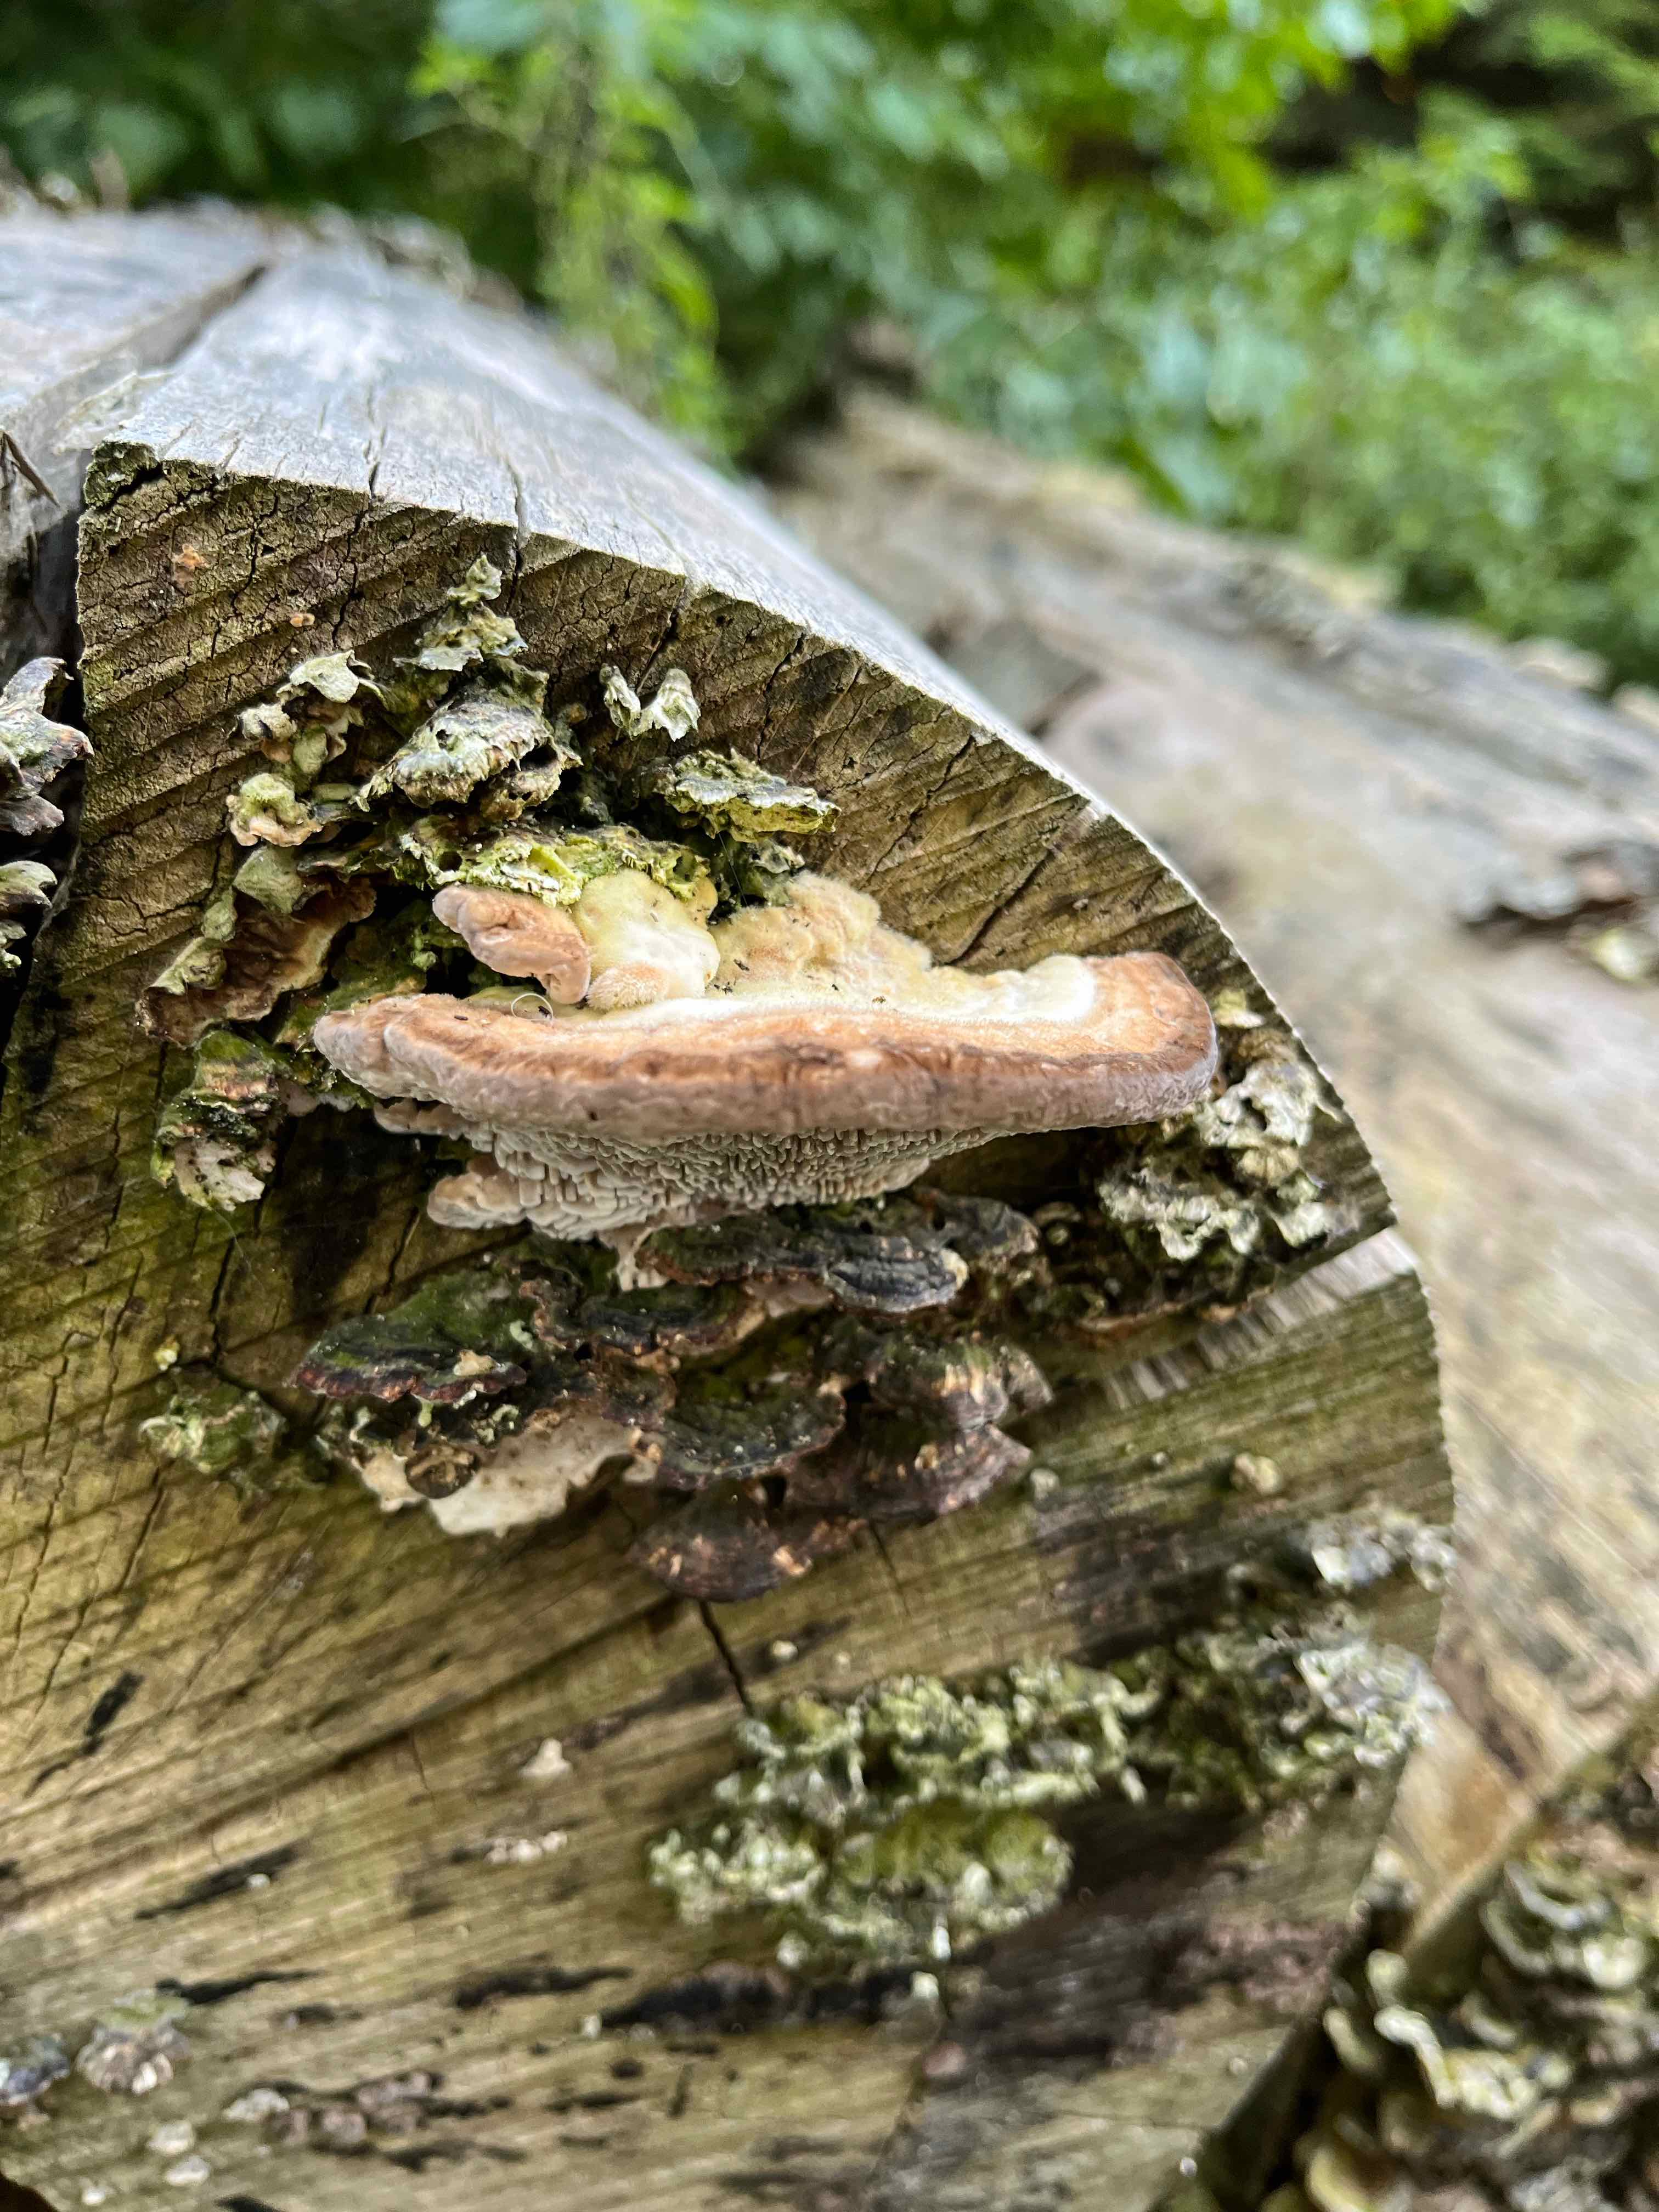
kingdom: Fungi
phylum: Basidiomycota
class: Agaricomycetes
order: Polyporales
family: Polyporaceae
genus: Lenzites
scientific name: Lenzites betulinus
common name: birke-læderporesvamp
